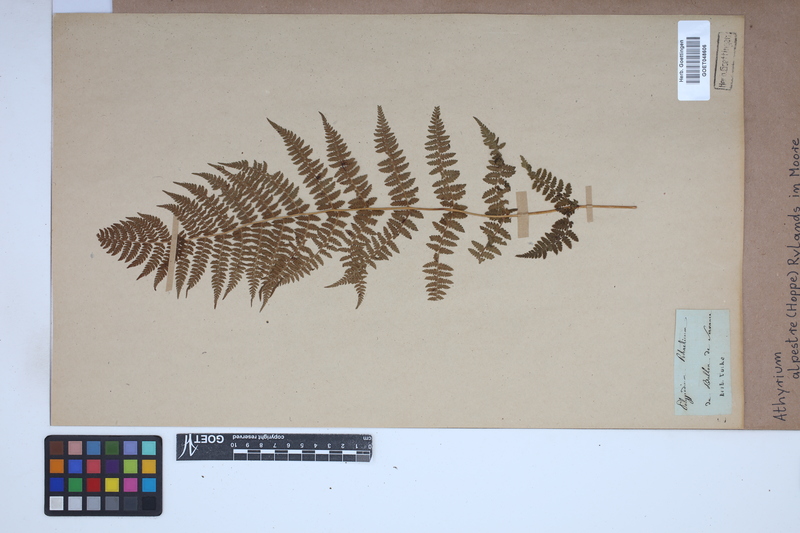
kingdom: Plantae
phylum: Tracheophyta
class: Polypodiopsida
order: Polypodiales
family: Athyriaceae
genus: Pseudathyrium
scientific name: Pseudathyrium alpestre
